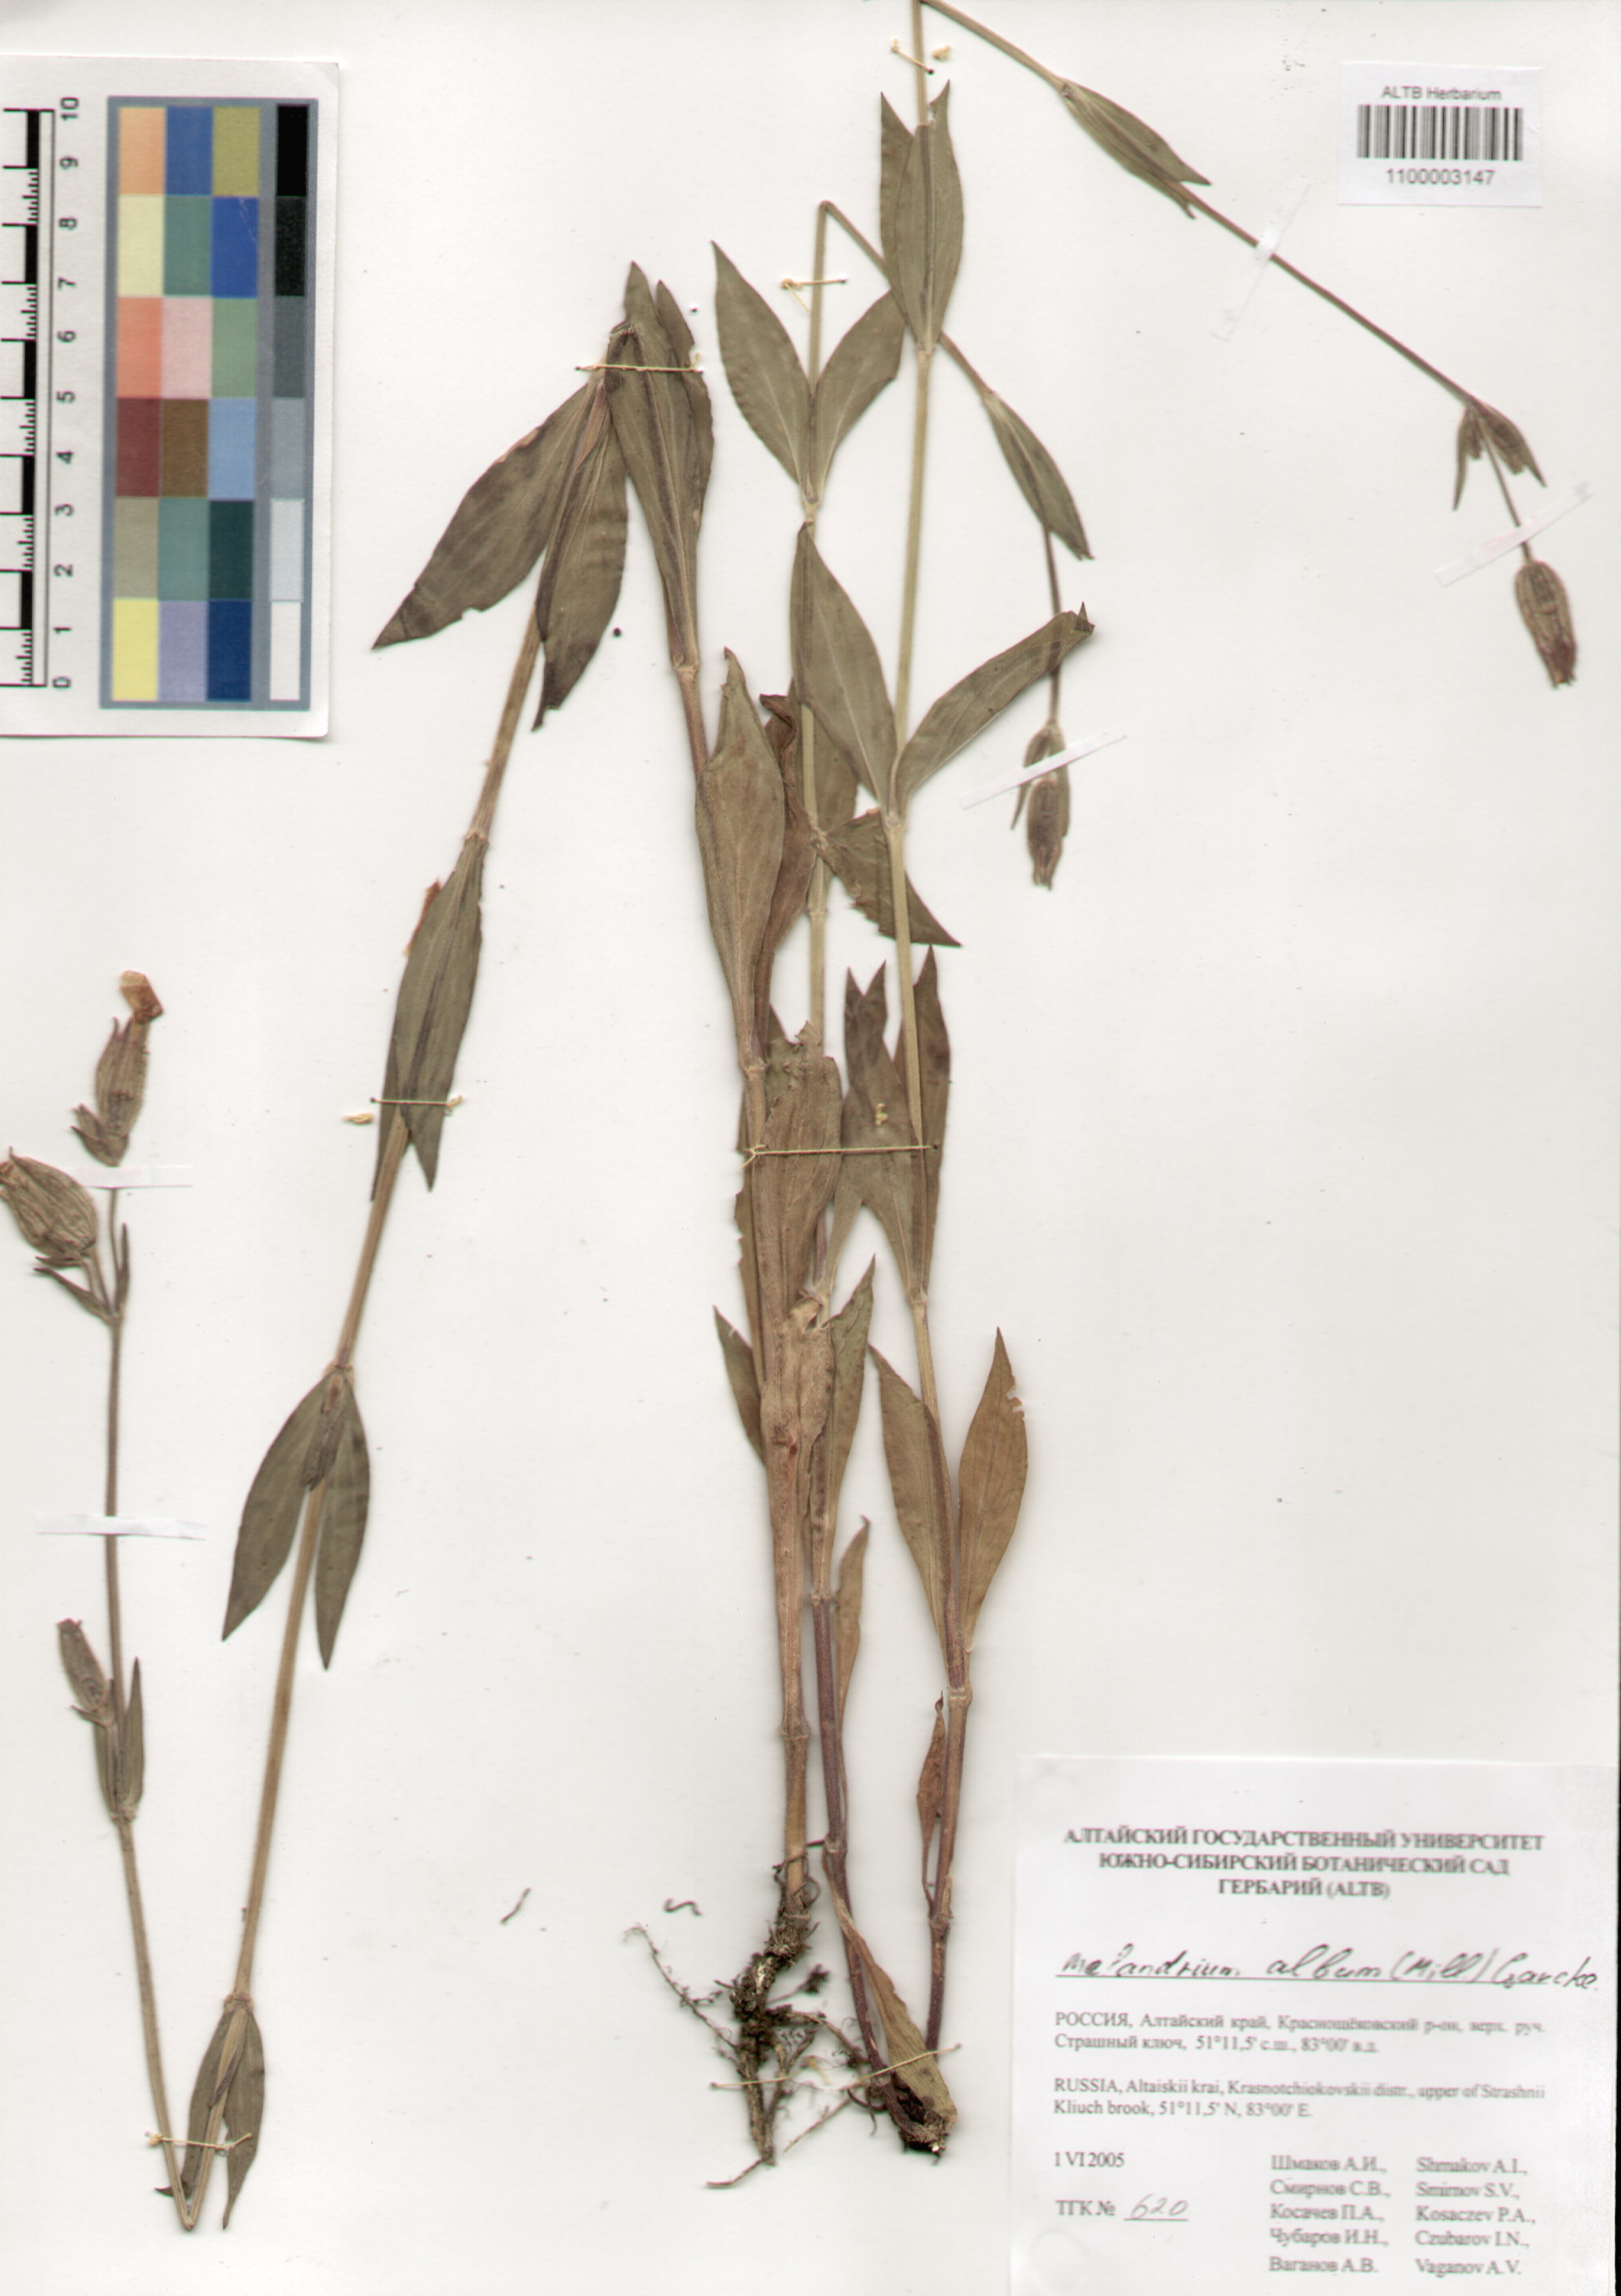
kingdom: Plantae
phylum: Tracheophyta
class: Magnoliopsida
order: Caryophyllales
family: Caryophyllaceae
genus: Silene
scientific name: Silene latifolia
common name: White campion
